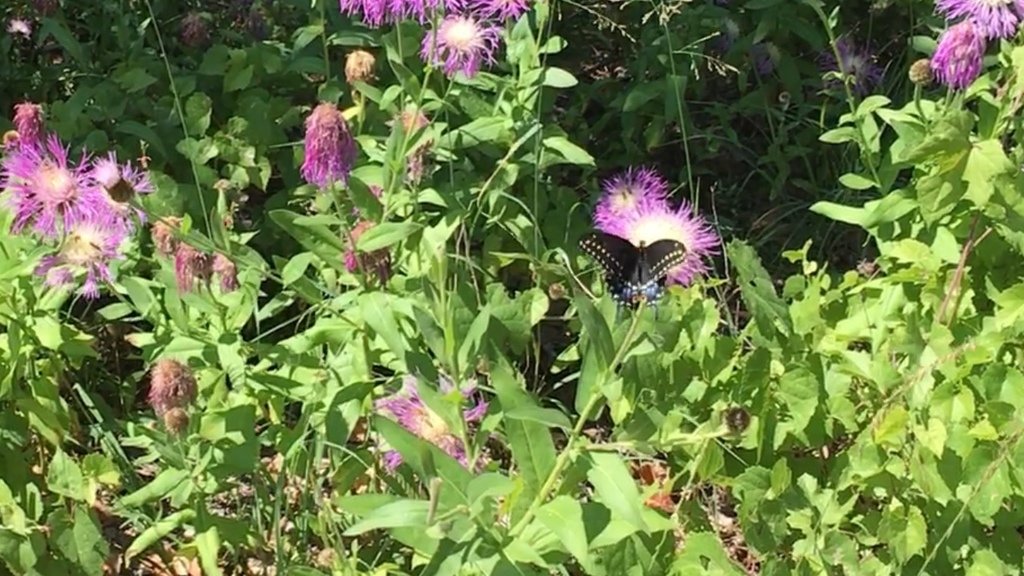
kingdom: Animalia
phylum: Arthropoda
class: Insecta
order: Lepidoptera
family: Papilionidae
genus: Papilio
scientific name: Papilio polyxenes
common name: Black Swallowtail
